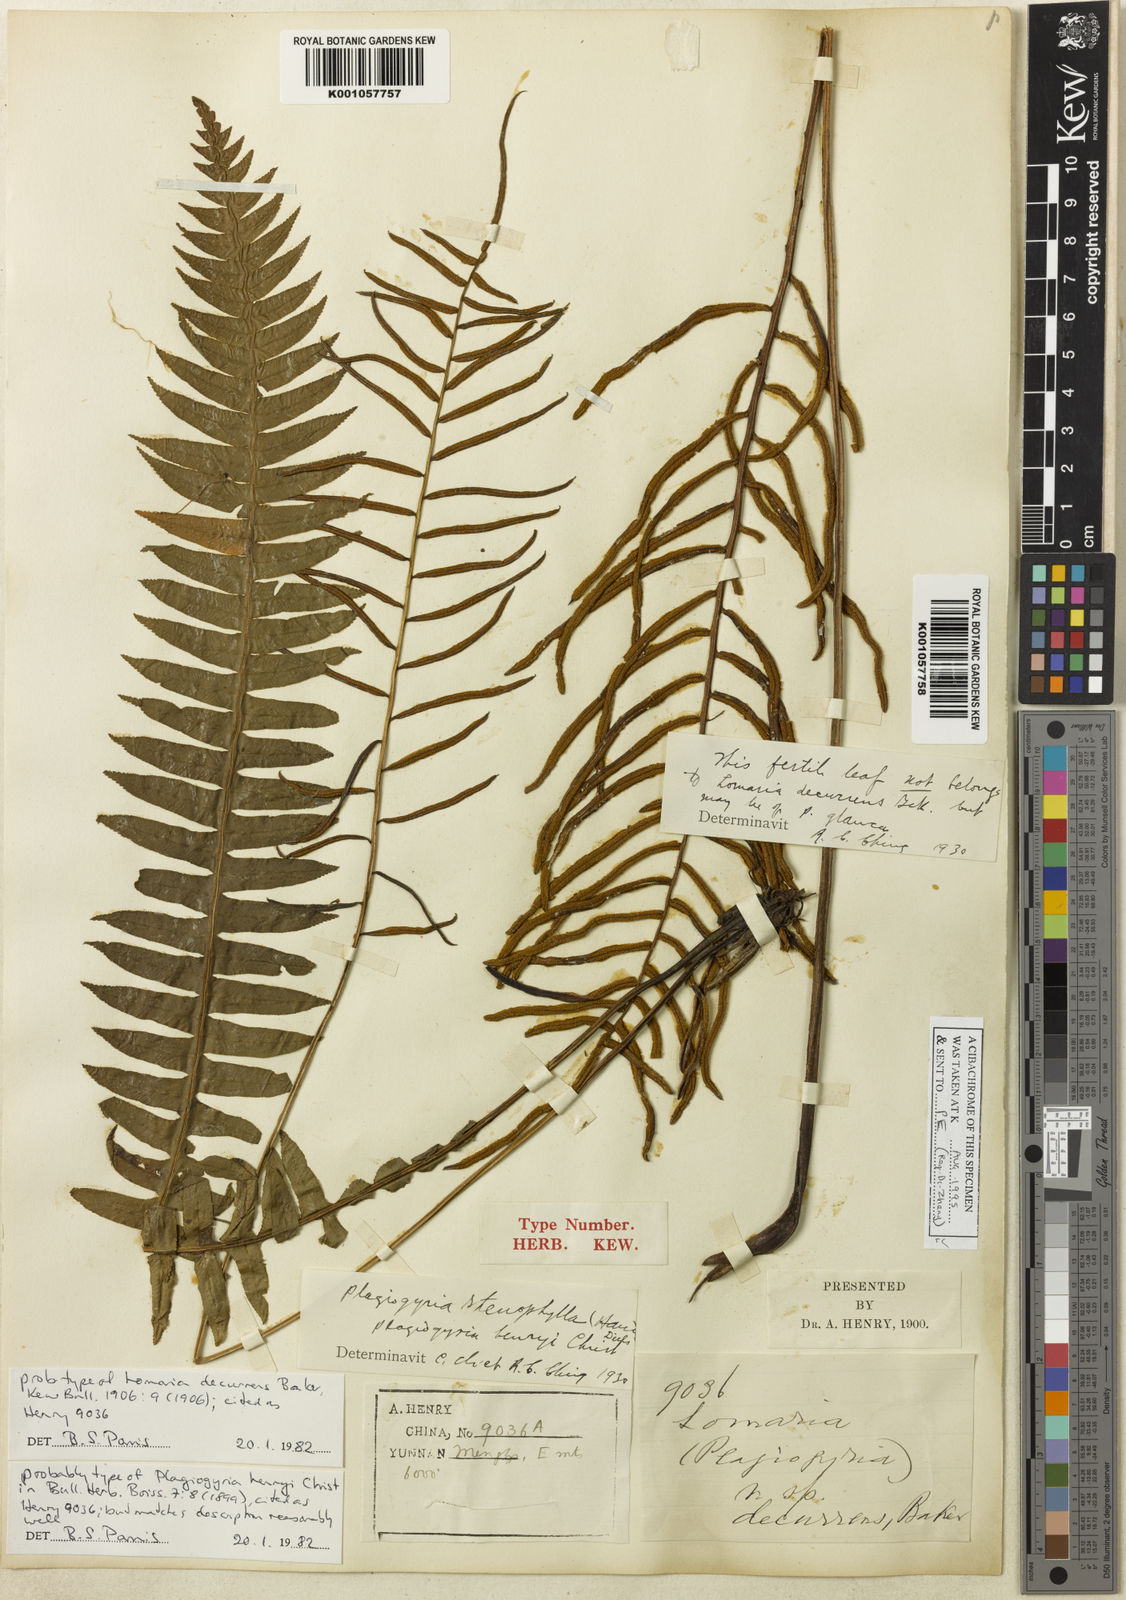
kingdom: Plantae
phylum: Tracheophyta
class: Polypodiopsida
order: Cyatheales
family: Plagiogyriaceae
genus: Plagiogyria
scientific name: Plagiogyria stenoptera
